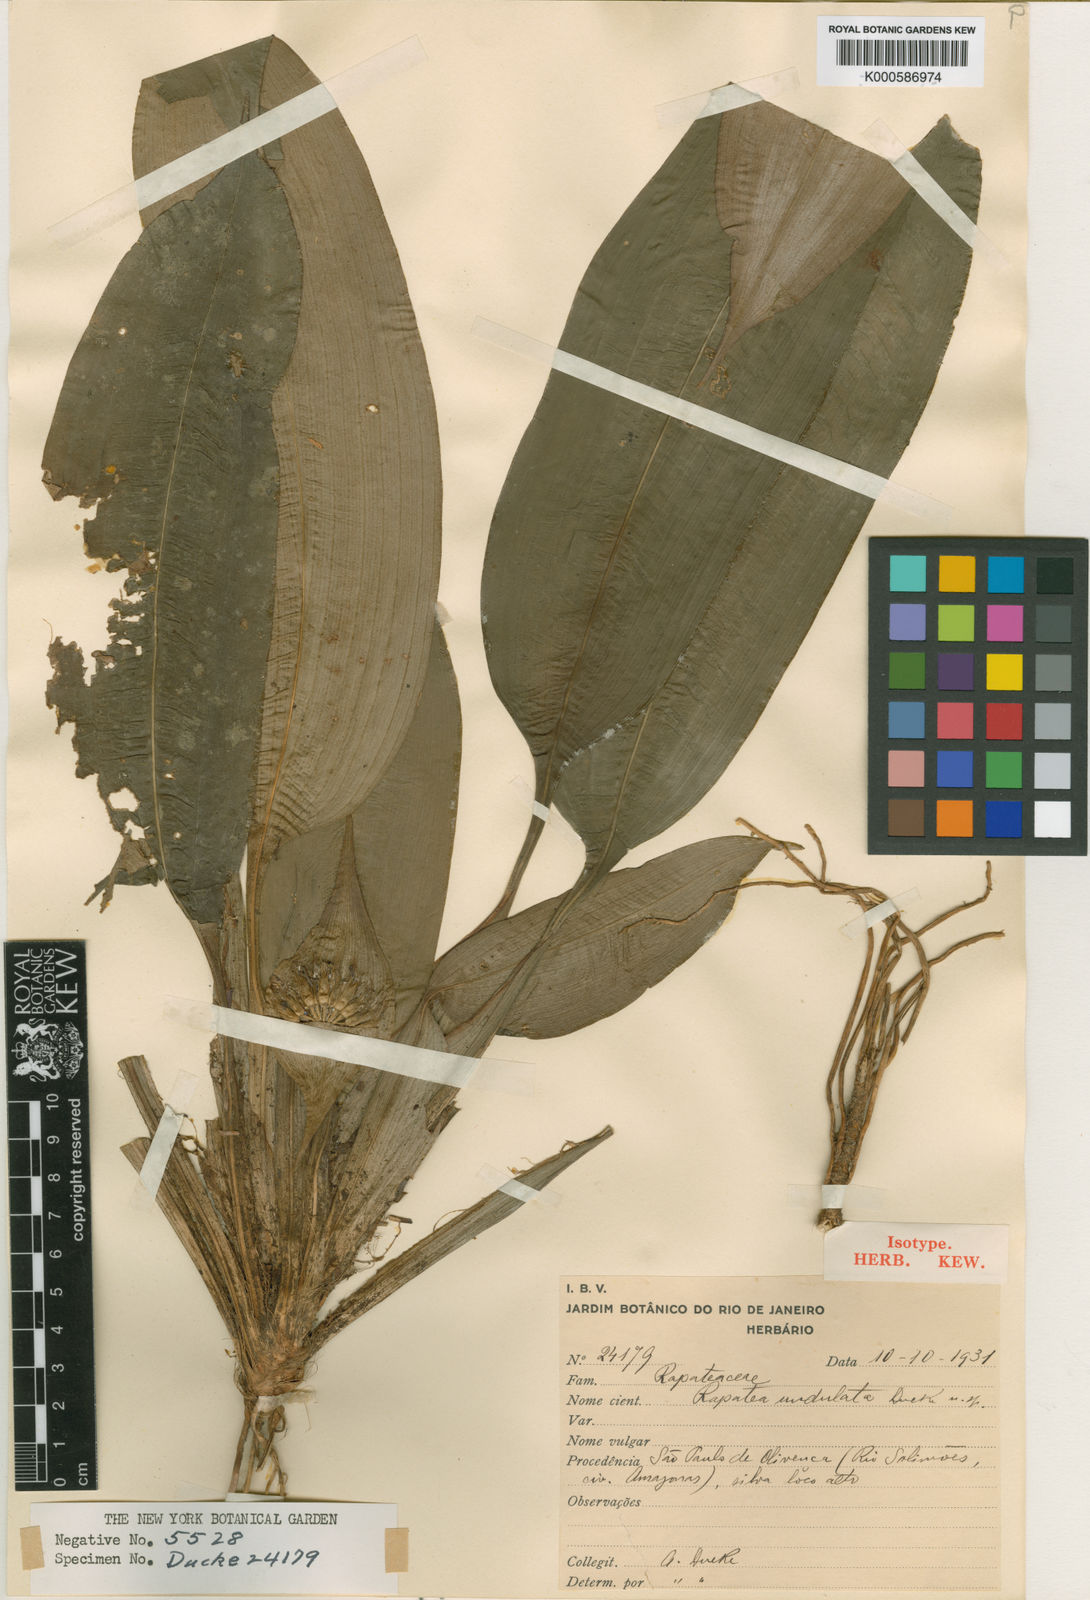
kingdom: Plantae
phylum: Tracheophyta
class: Liliopsida
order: Poales
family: Rapateaceae
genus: Rapatea
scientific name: Rapatea undulata
